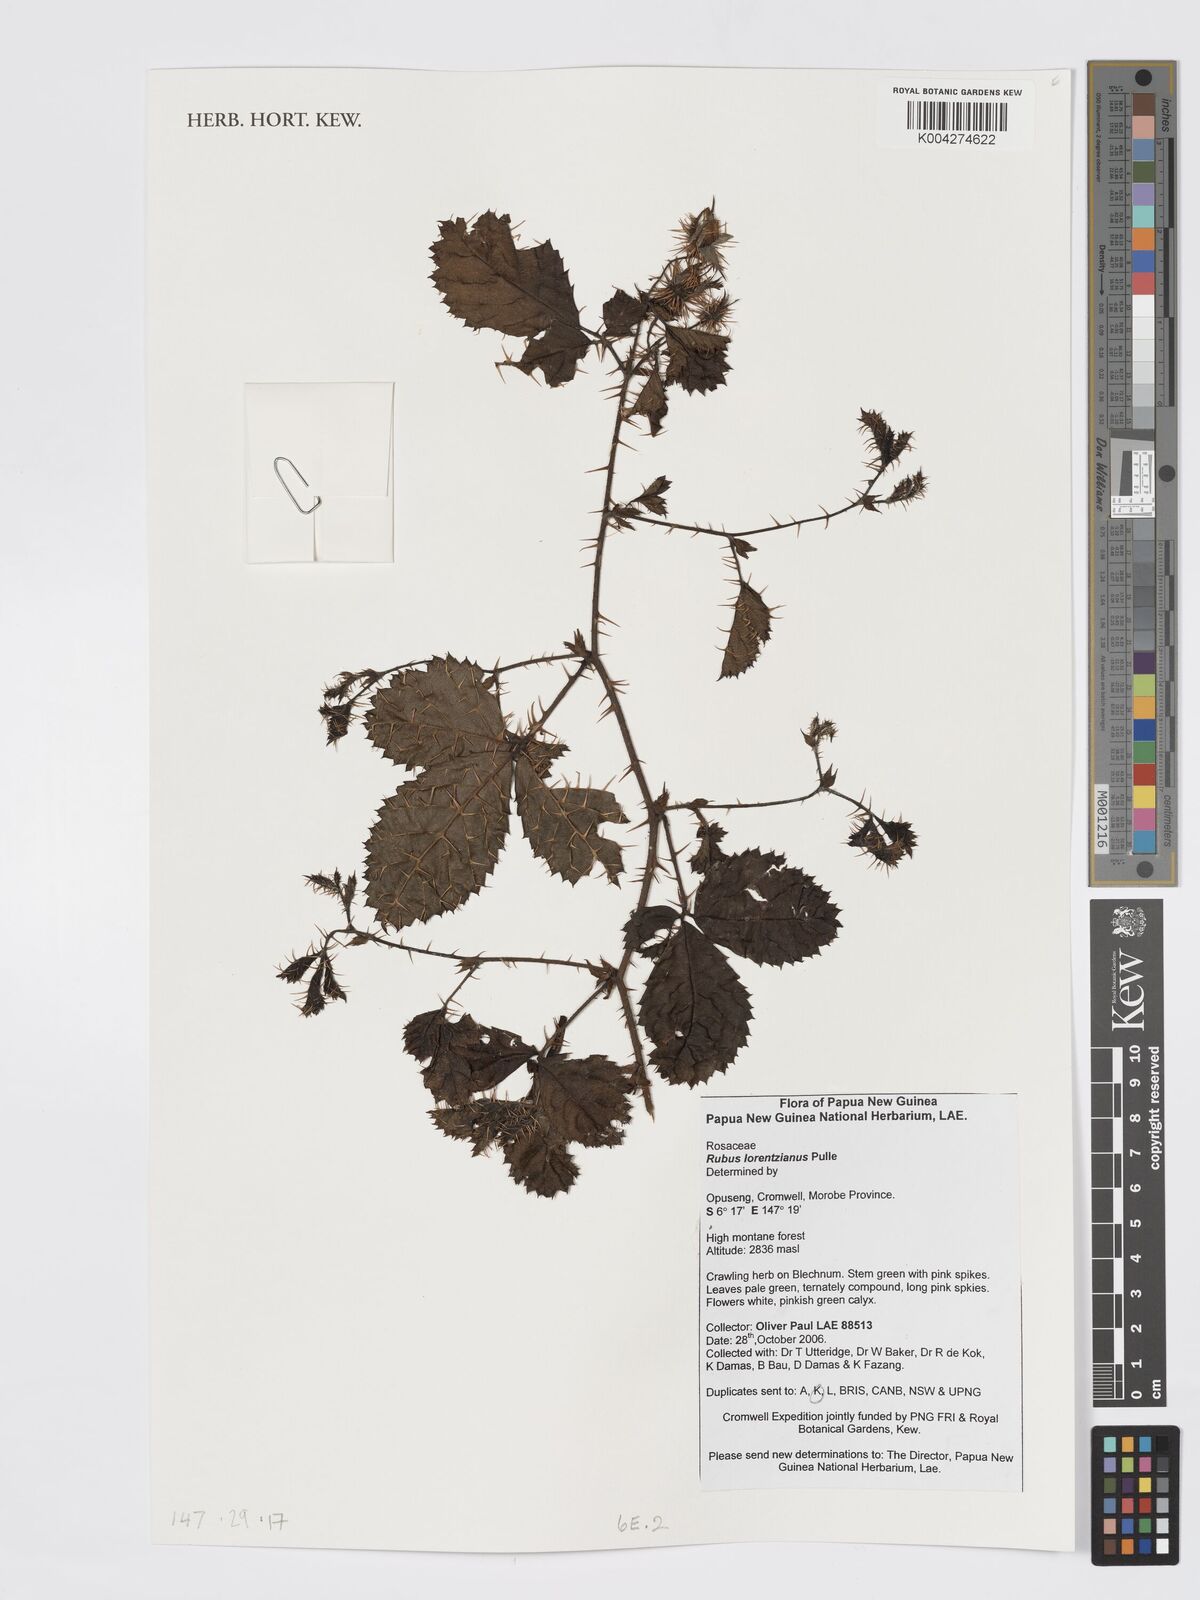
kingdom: Plantae
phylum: Tracheophyta
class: Magnoliopsida
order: Rosales
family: Rosaceae
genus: Rubus
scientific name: Rubus lorentzianus
